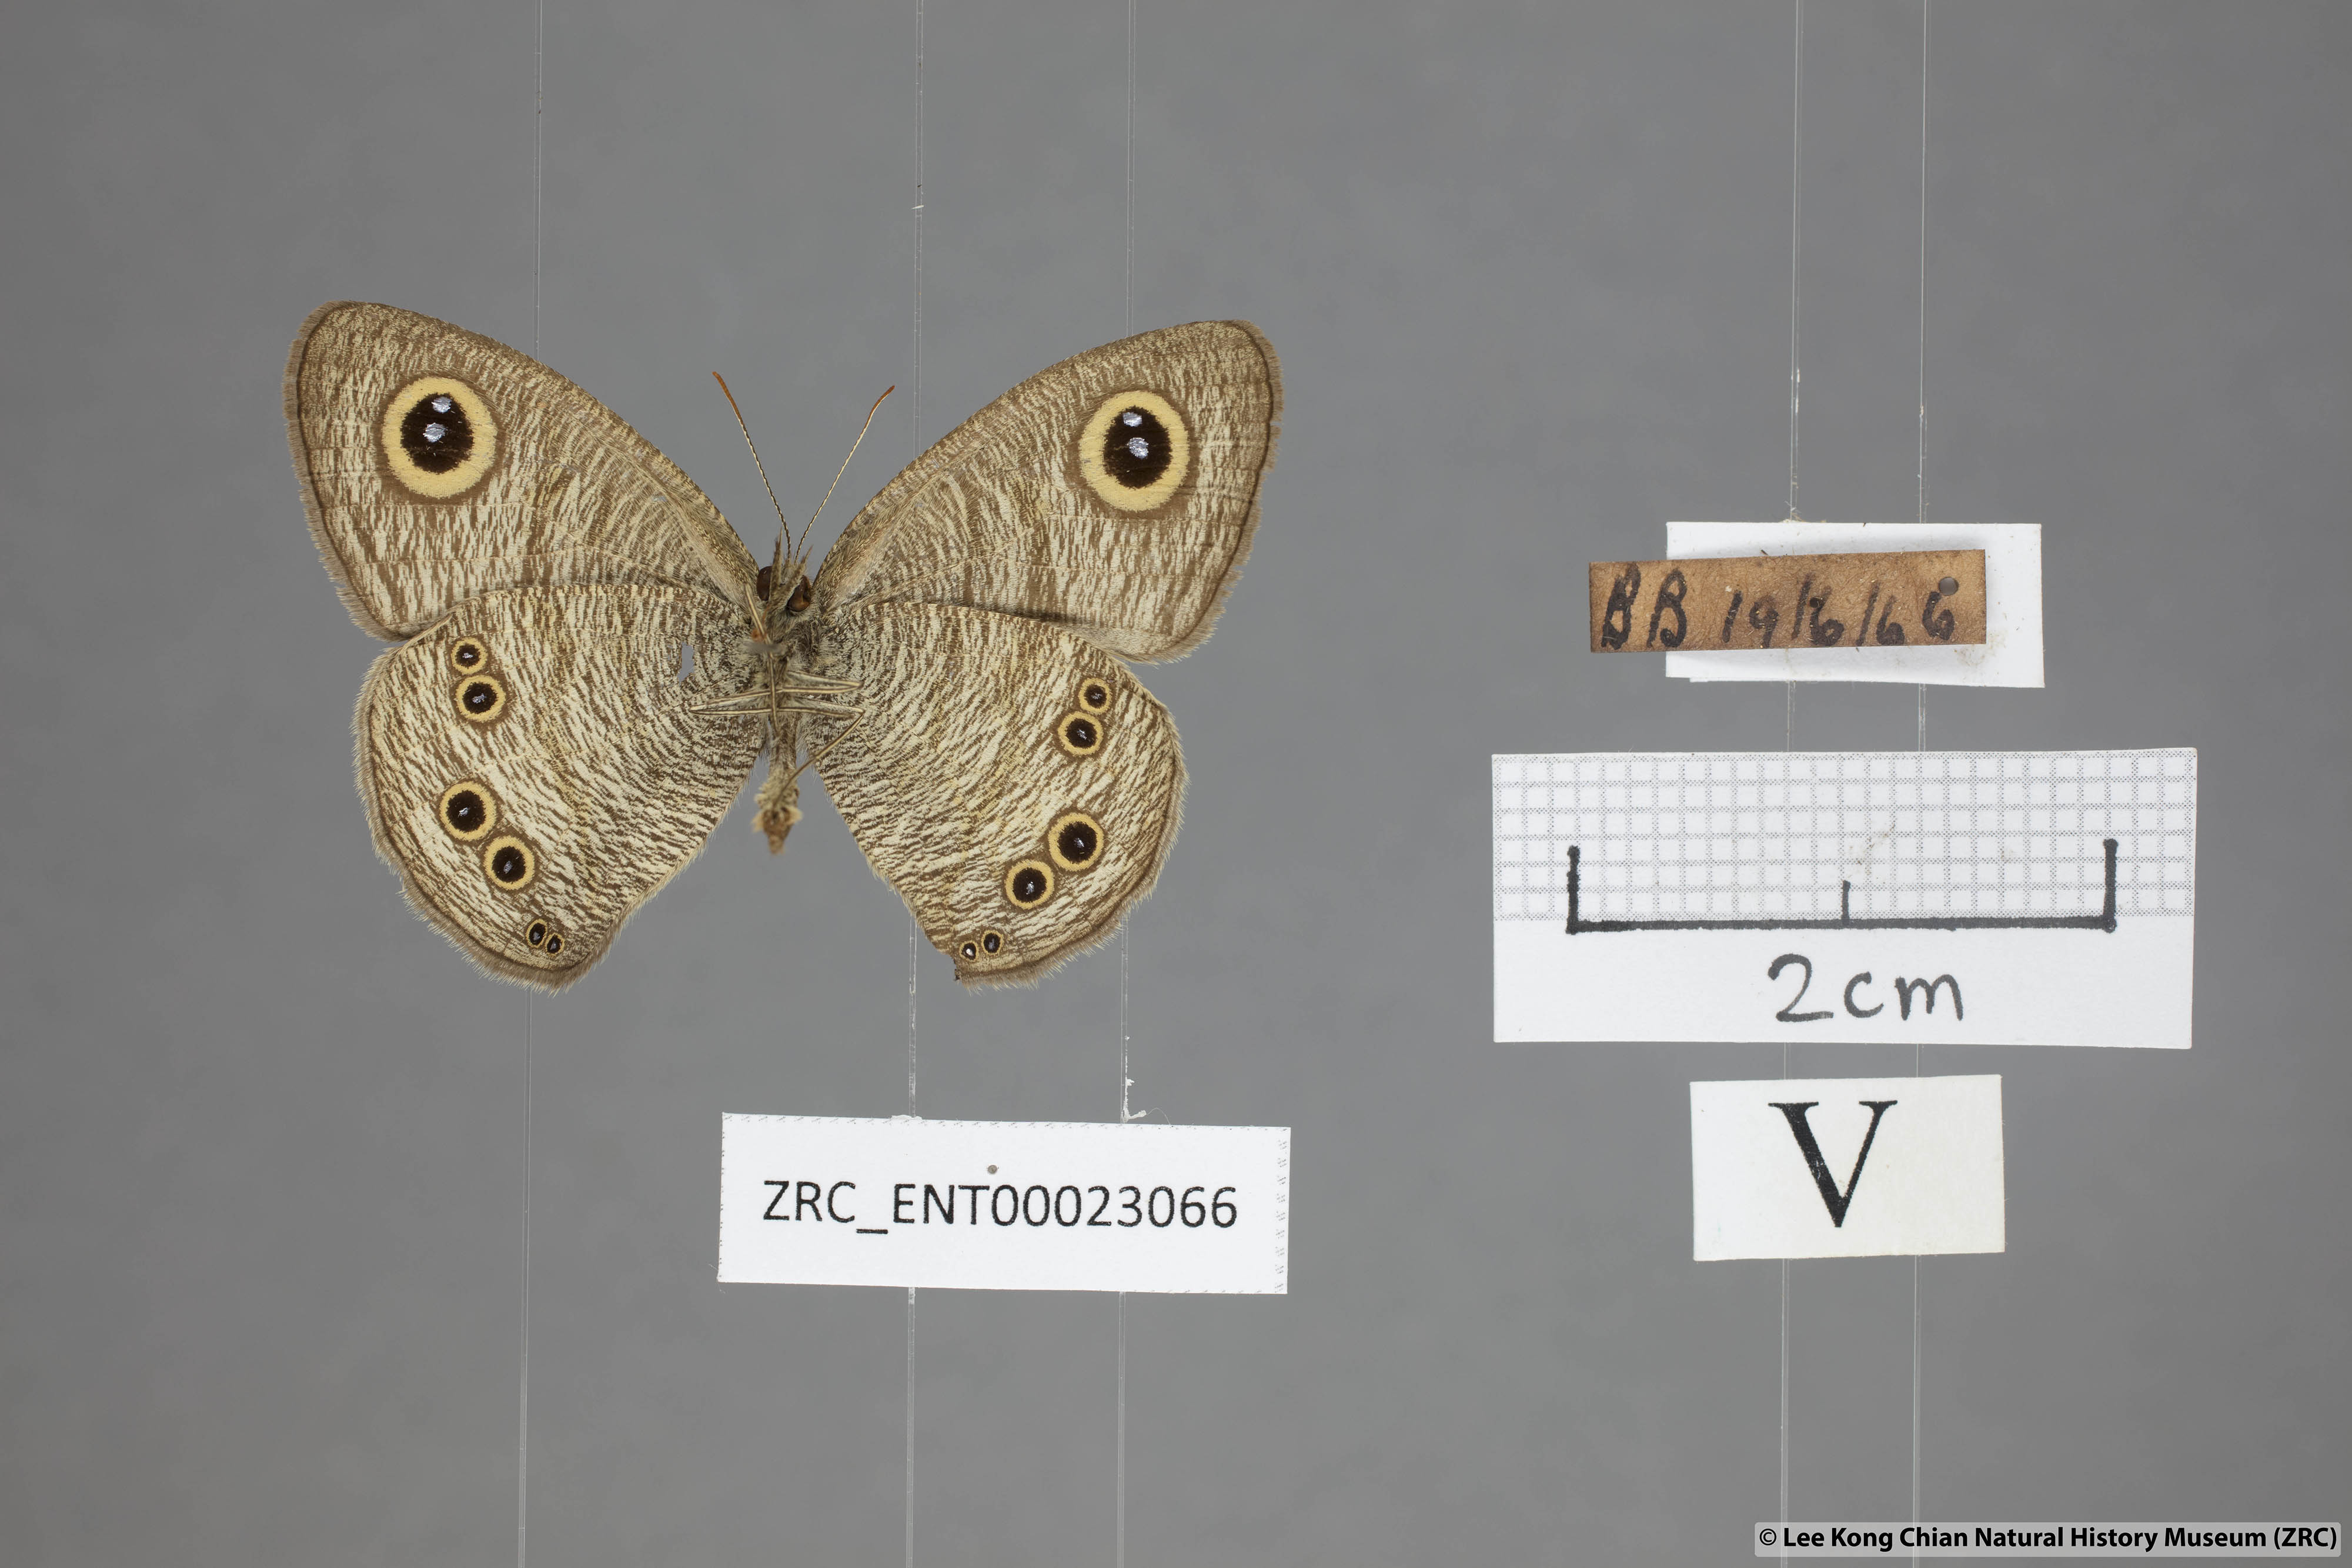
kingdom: Animalia
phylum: Arthropoda
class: Insecta
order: Lepidoptera
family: Nymphalidae
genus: Ypthima
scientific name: Ypthima baldus
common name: Common five-ring
